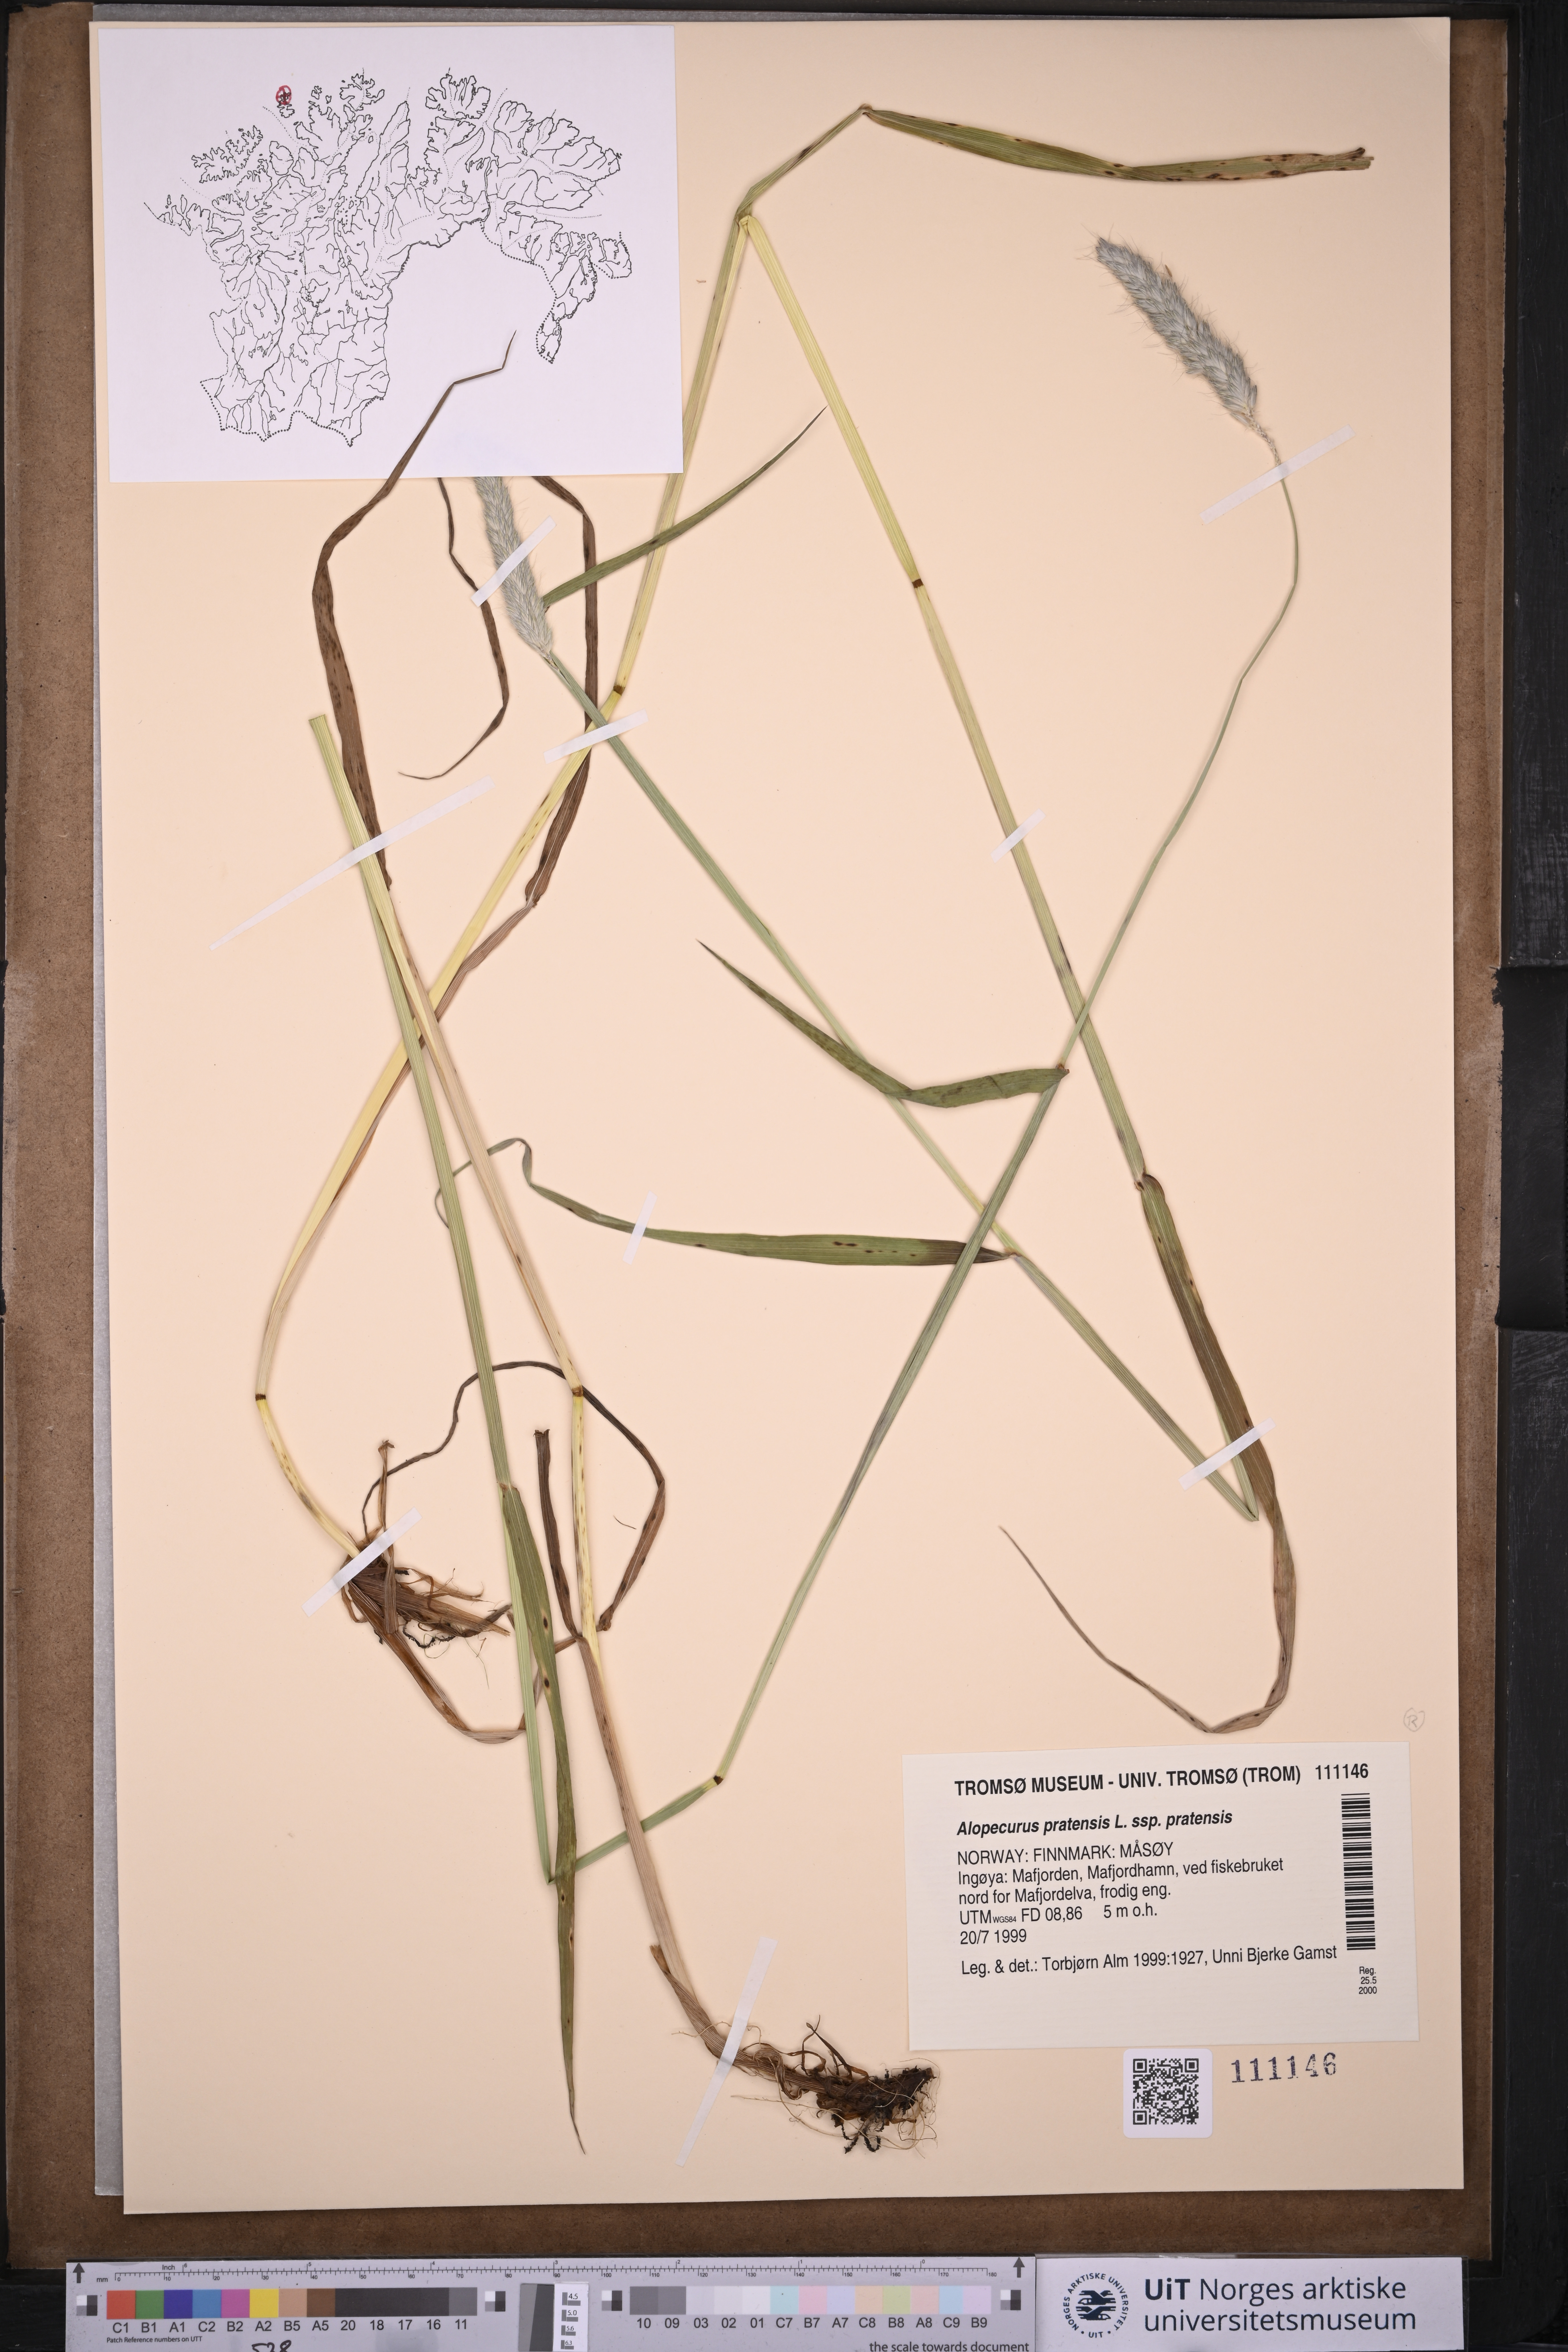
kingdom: Plantae
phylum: Tracheophyta
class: Liliopsida
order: Poales
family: Poaceae
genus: Alopecurus
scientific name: Alopecurus pratensis
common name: Meadow foxtail
